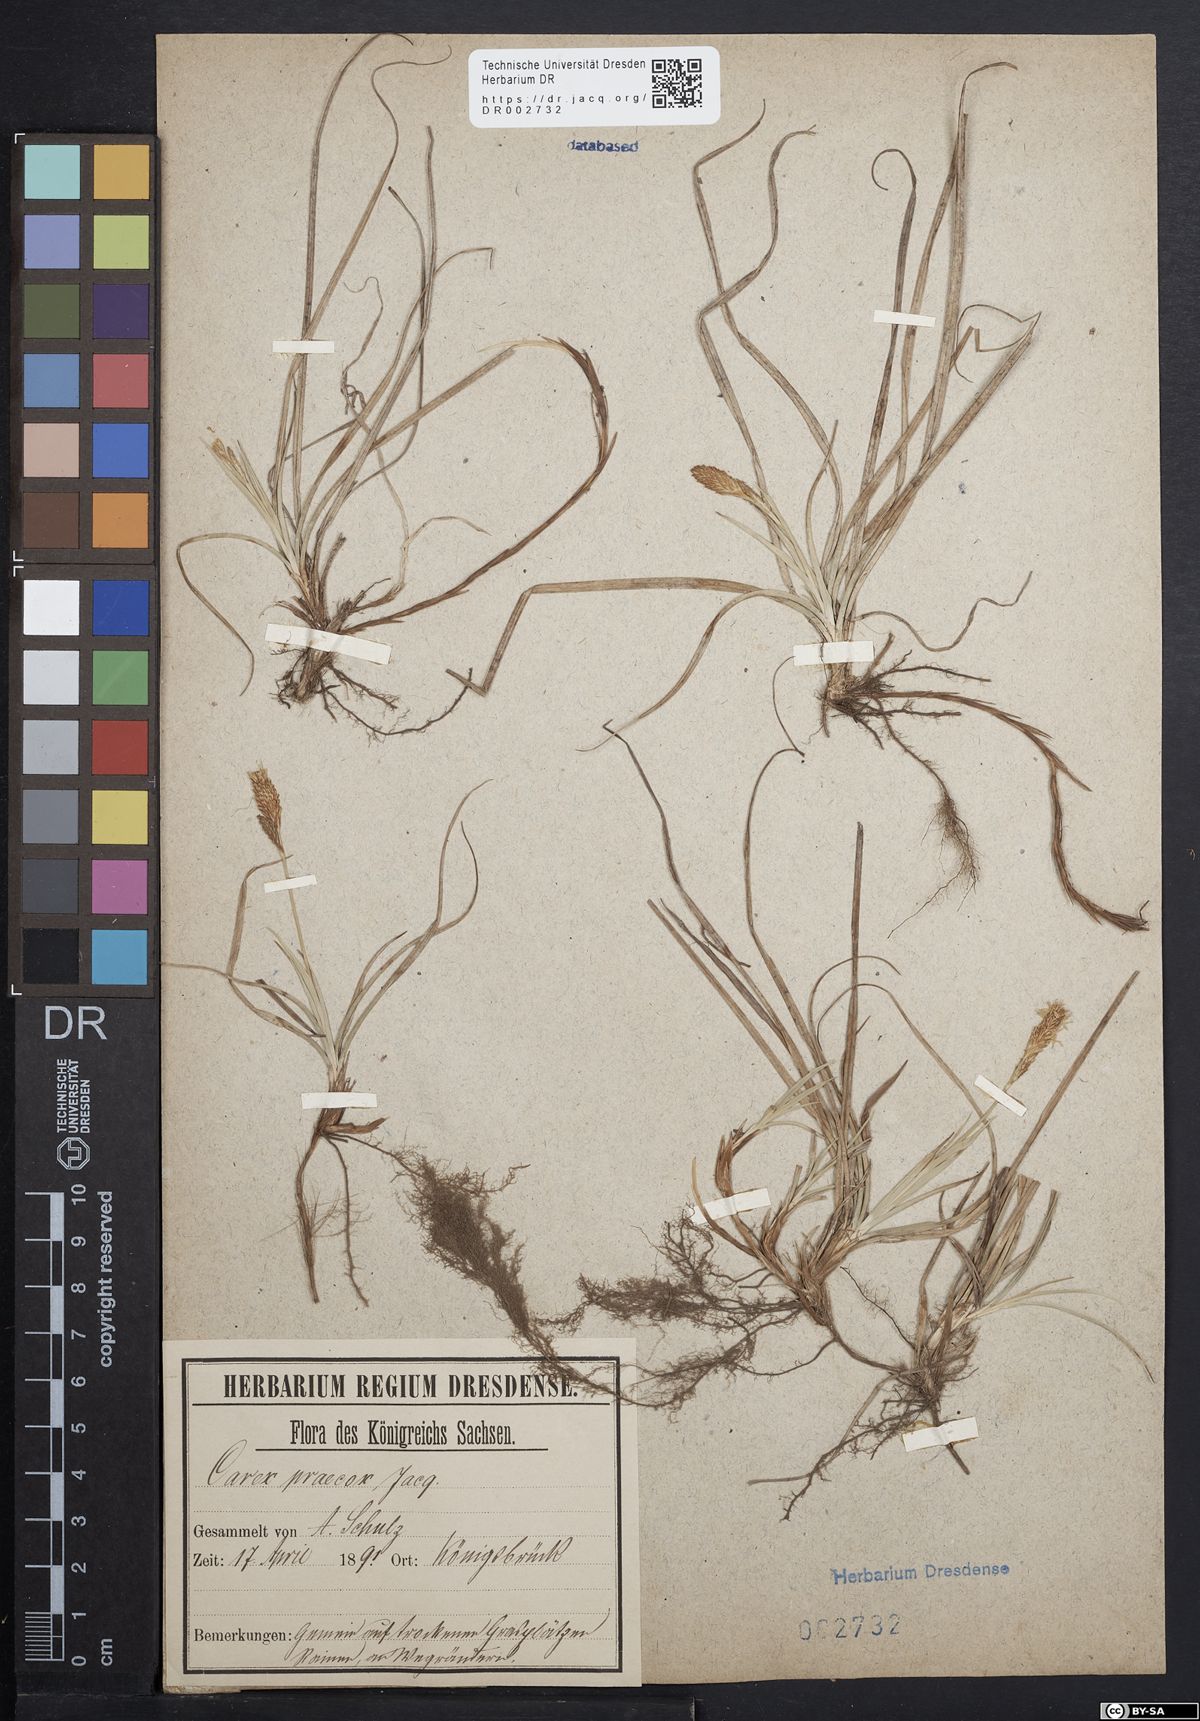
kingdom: Plantae
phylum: Tracheophyta
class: Liliopsida
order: Poales
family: Cyperaceae
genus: Carex
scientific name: Carex caryophyllea
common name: Spring sedge
